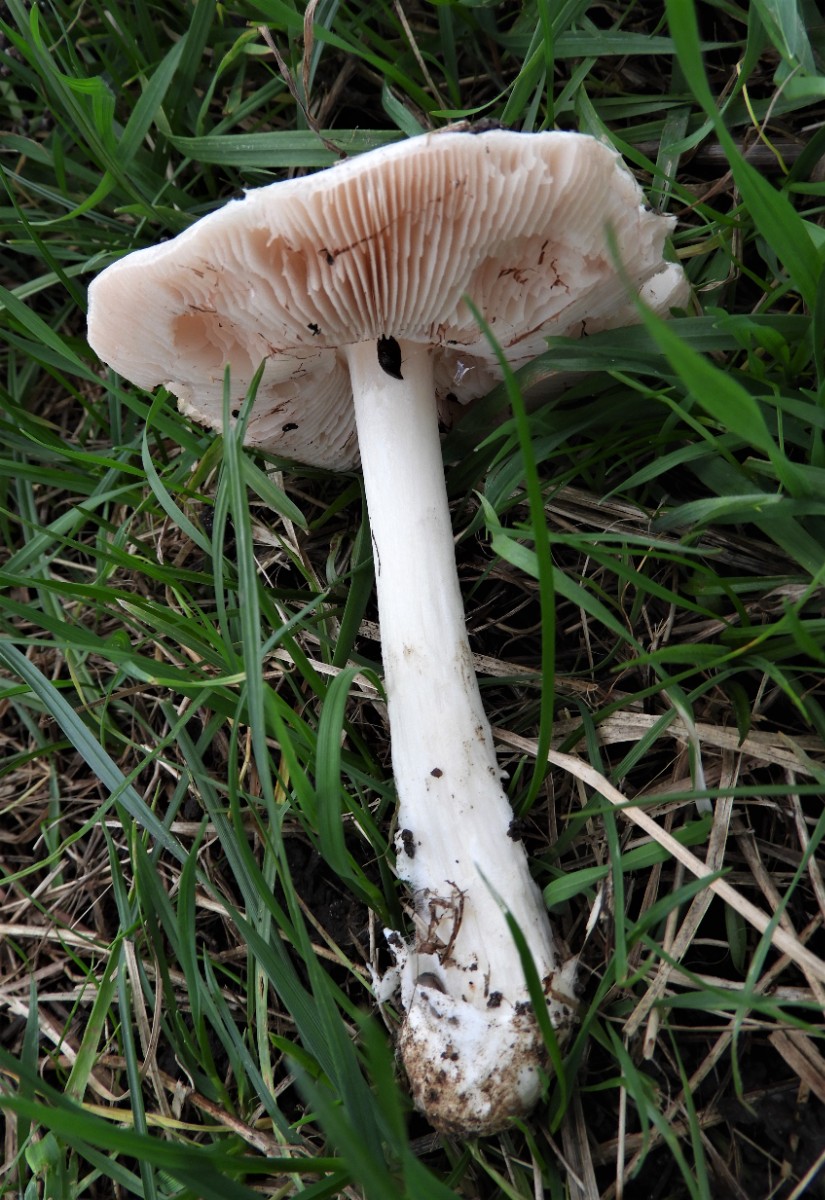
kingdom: Fungi
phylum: Basidiomycota
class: Agaricomycetes
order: Agaricales
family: Pluteaceae
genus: Volvopluteus
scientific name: Volvopluteus gloiocephalus
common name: høj posesvamp
